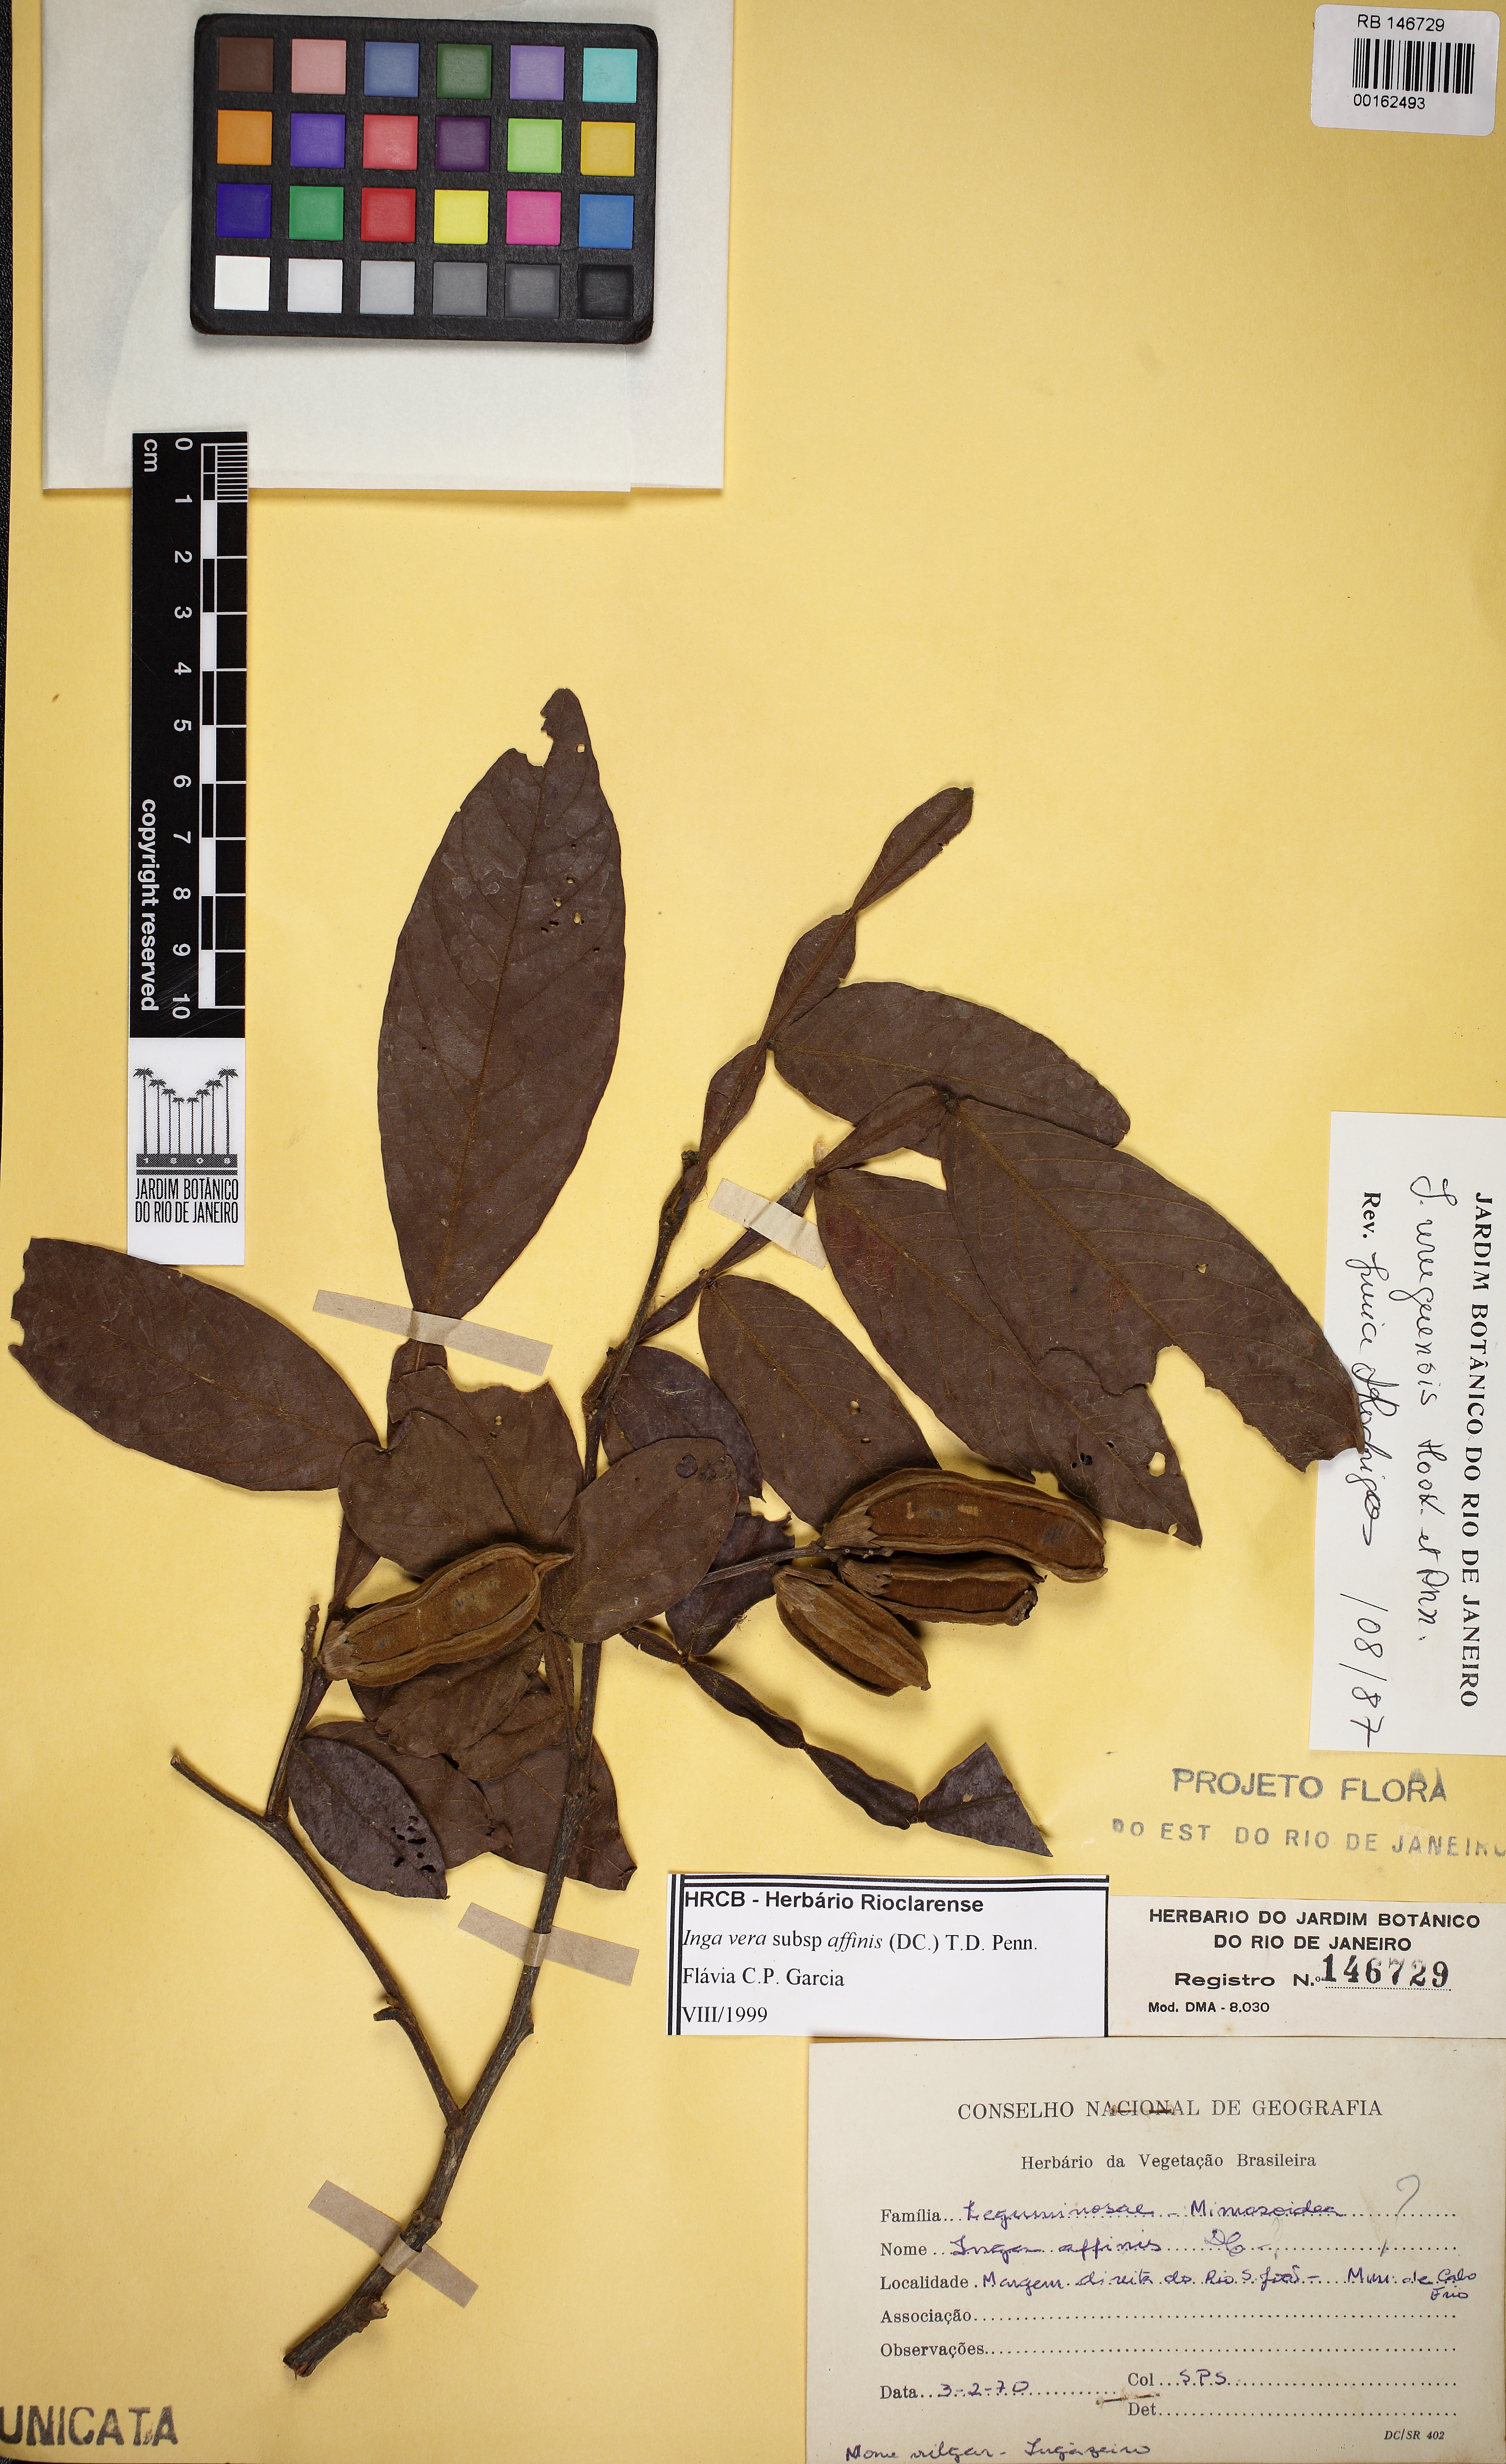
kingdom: Plantae
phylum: Tracheophyta
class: Magnoliopsida
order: Fabales
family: Fabaceae
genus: Inga
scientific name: Inga affinis
